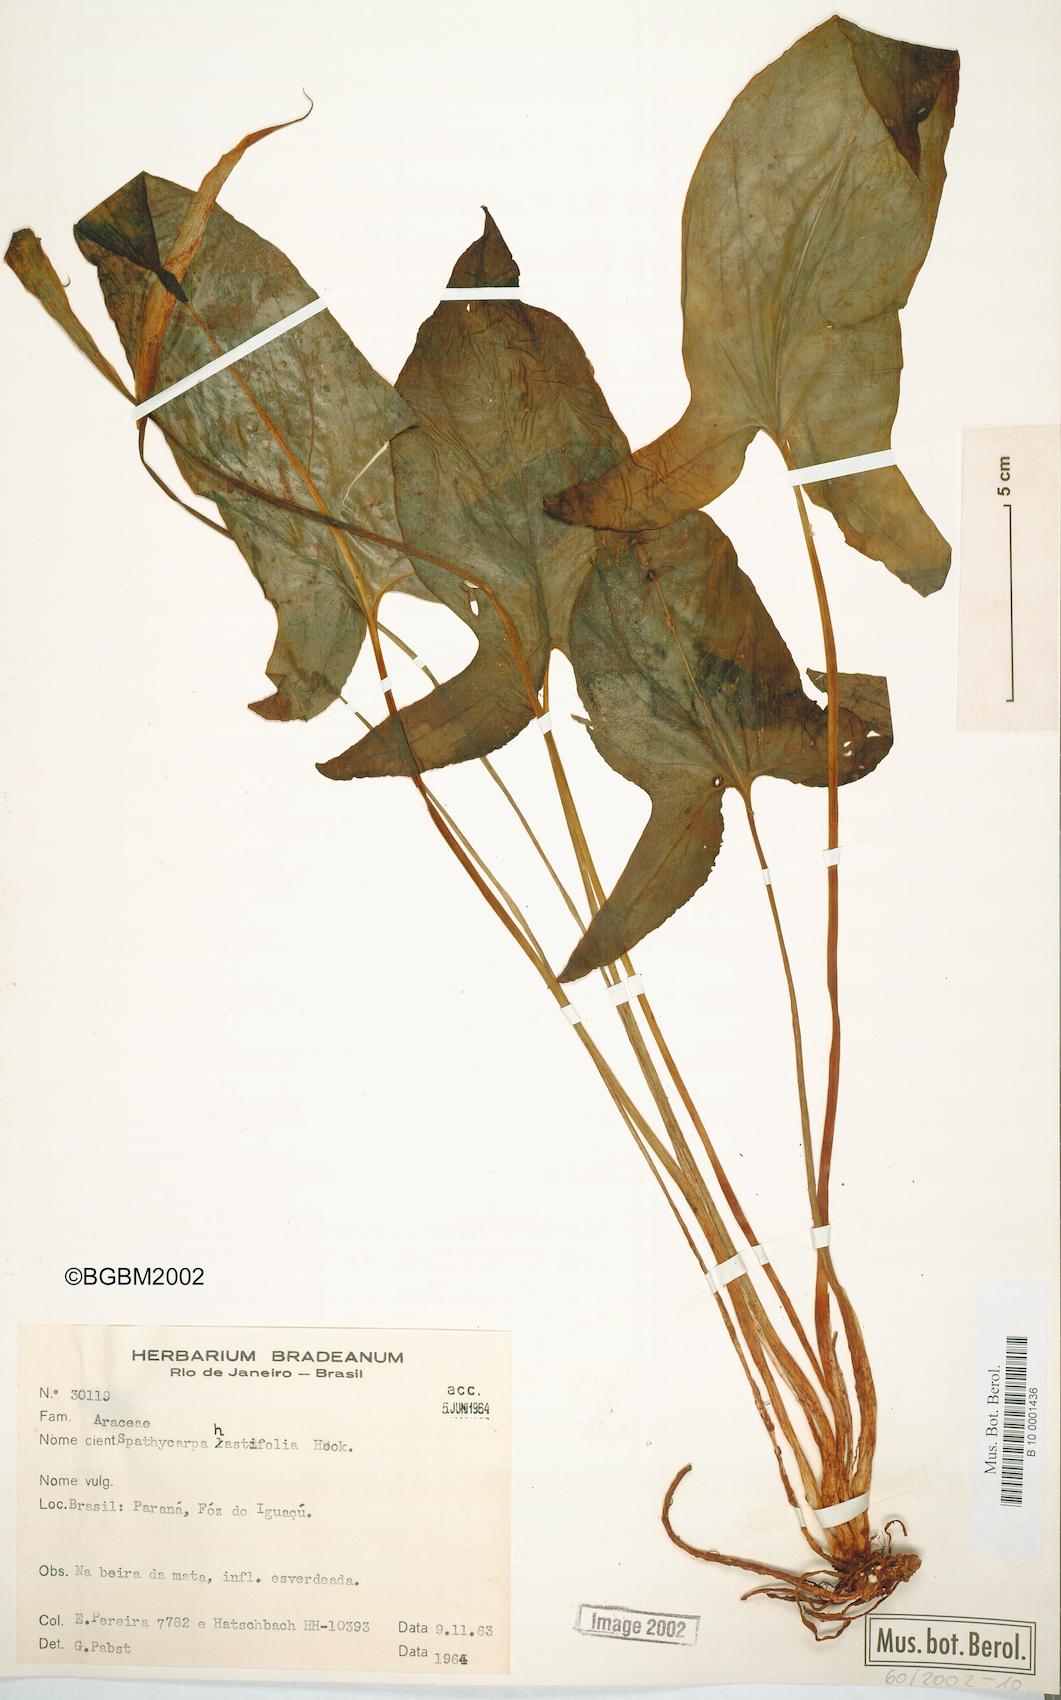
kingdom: Plantae
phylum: Tracheophyta
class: Liliopsida
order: Alismatales
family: Araceae
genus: Spathicarpa
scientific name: Spathicarpa hastifolia
